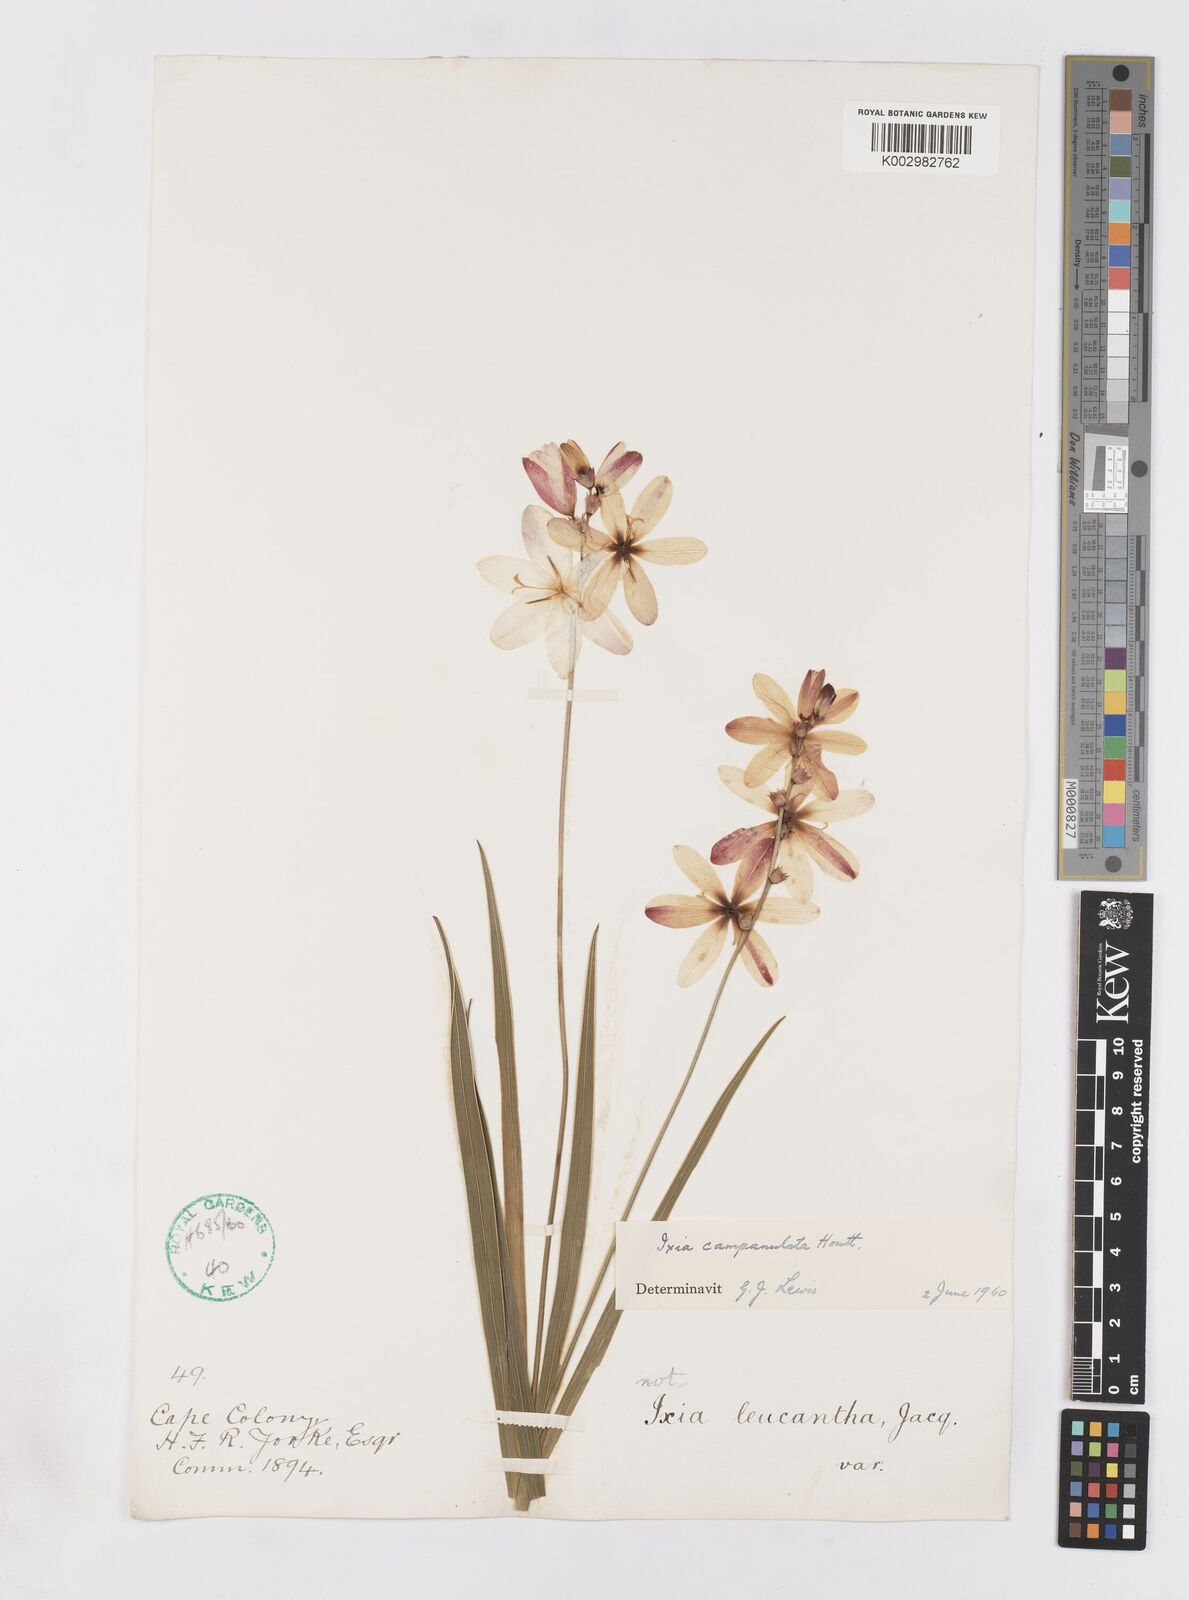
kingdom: Plantae
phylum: Tracheophyta
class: Liliopsida
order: Asparagales
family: Iridaceae
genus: Ixia
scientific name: Ixia campanulata
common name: Red corn-lily
